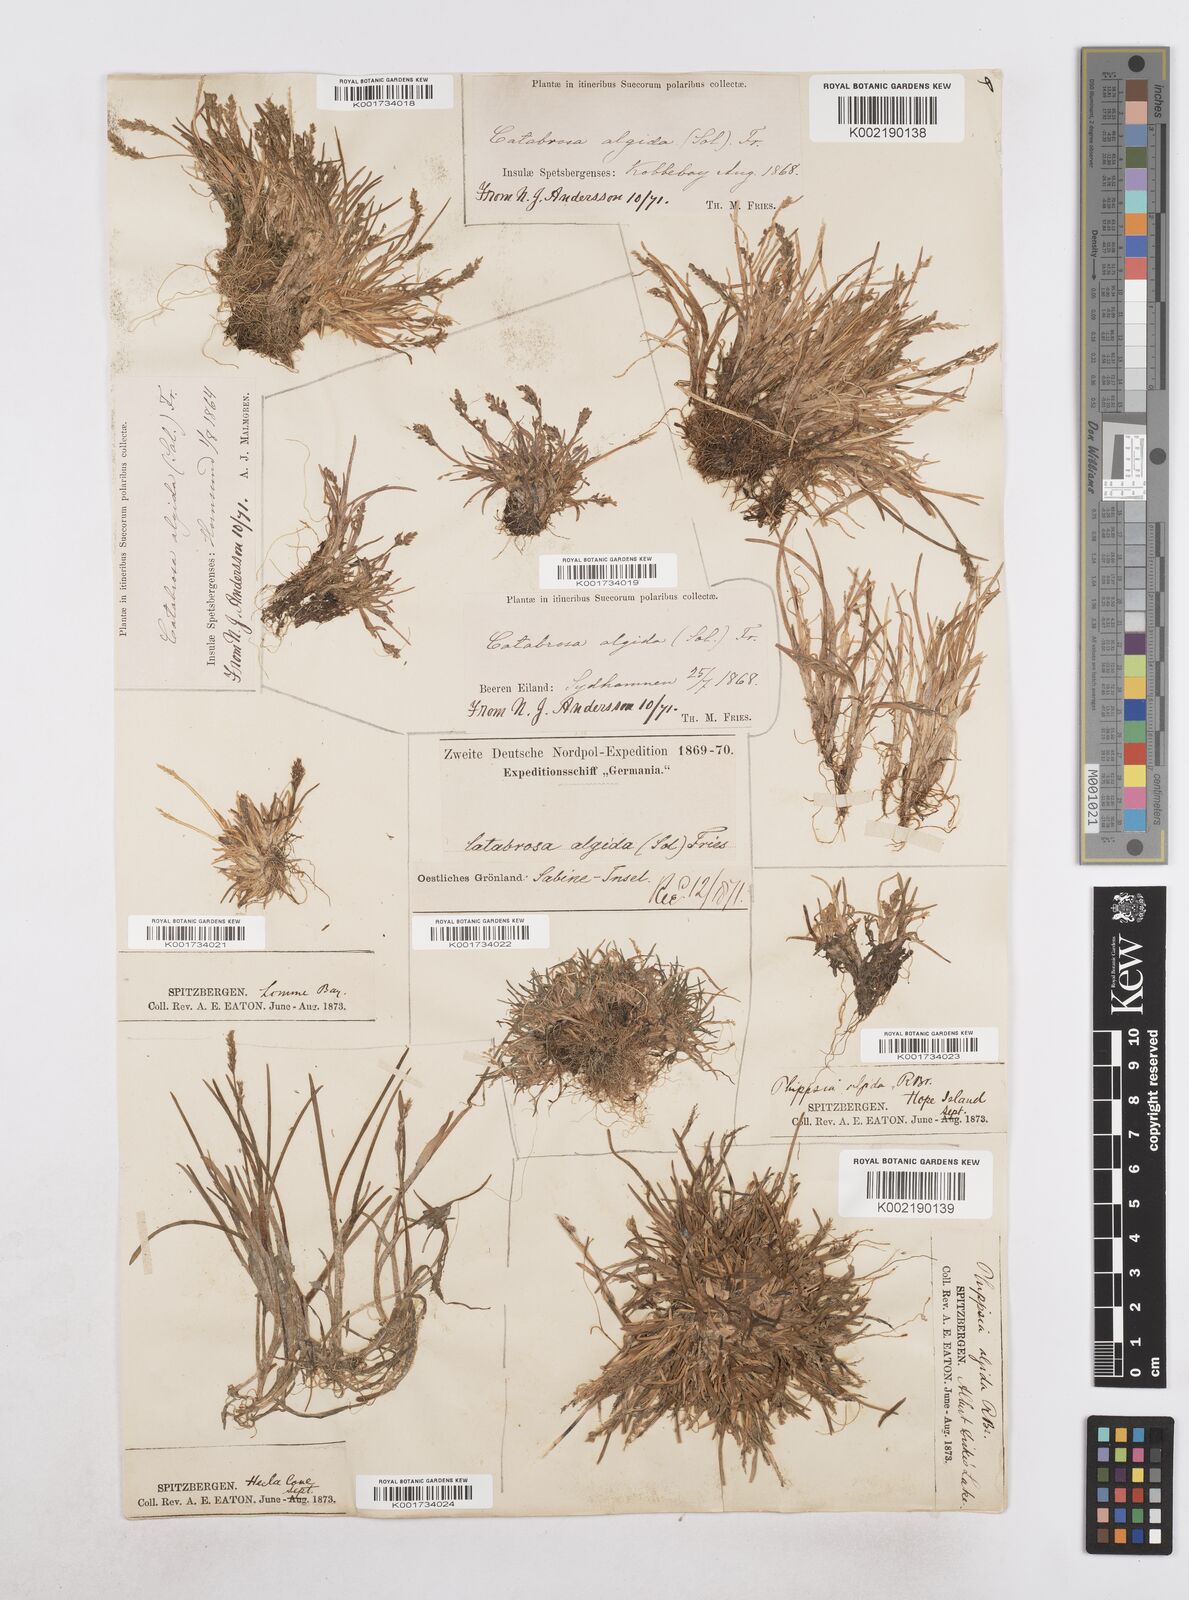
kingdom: Plantae
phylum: Tracheophyta
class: Liliopsida
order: Poales
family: Poaceae
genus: Phippsia
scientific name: Phippsia algida
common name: Ice grass
